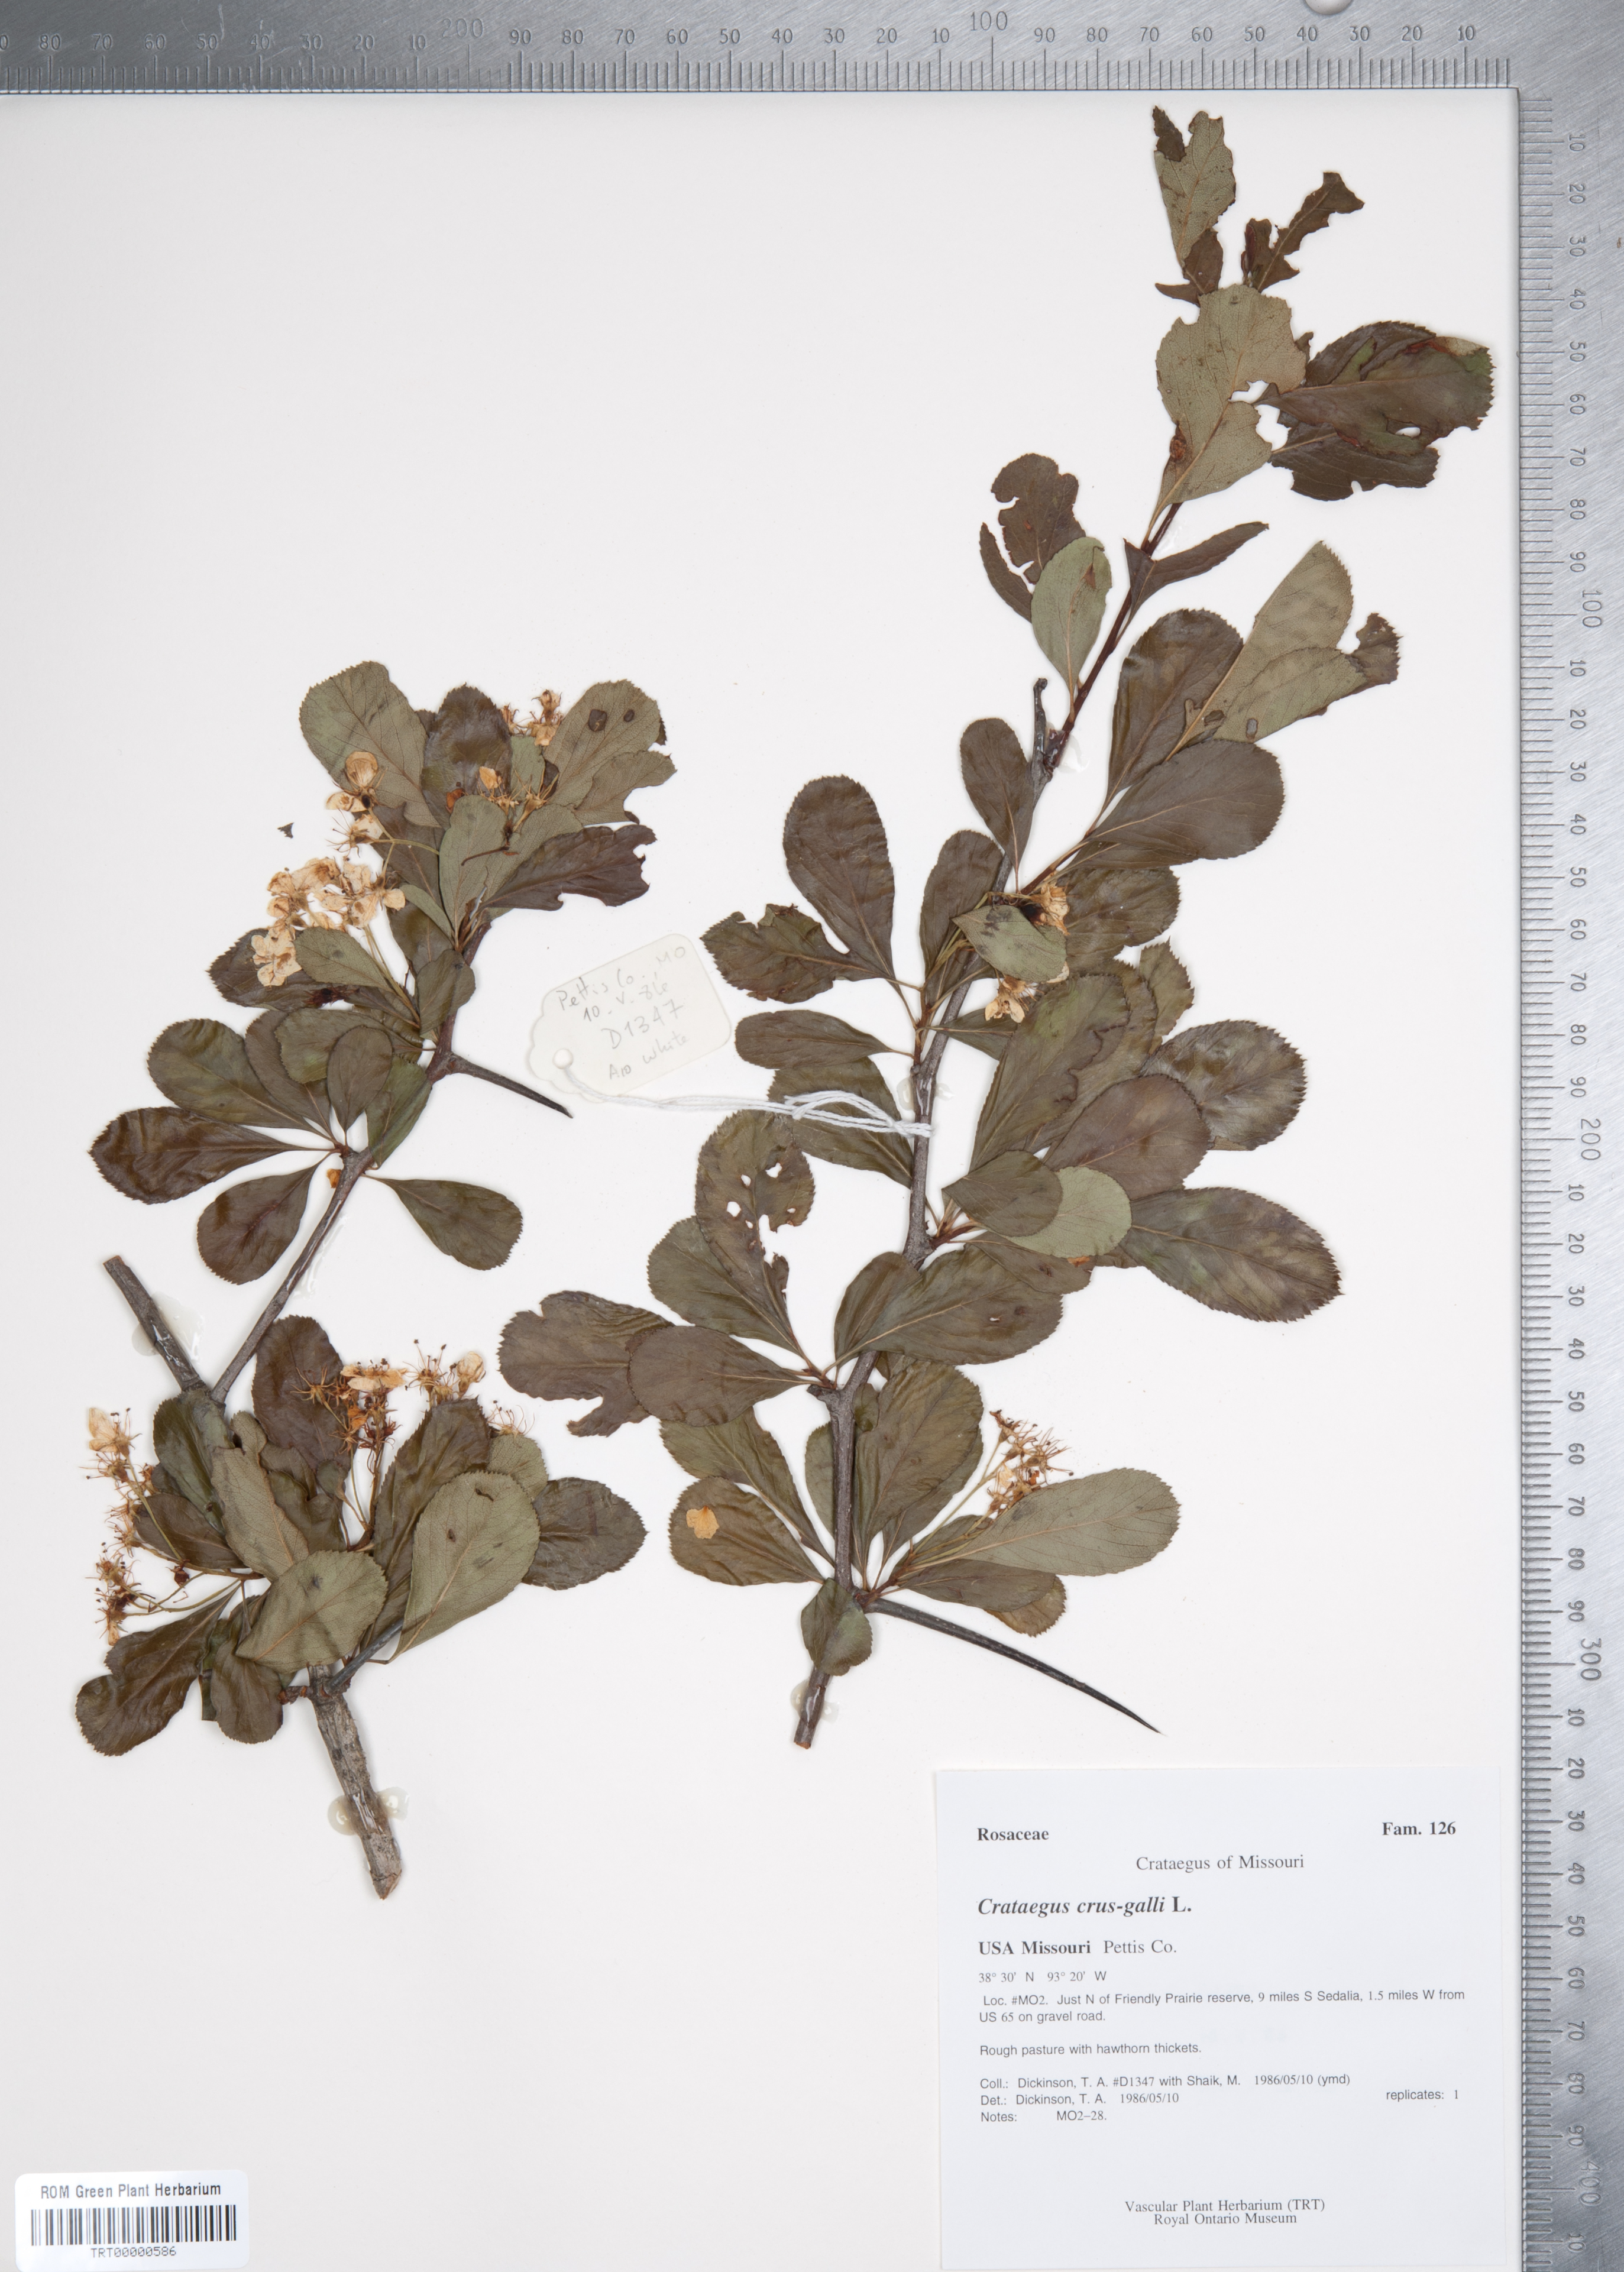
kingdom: Plantae
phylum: Tracheophyta
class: Magnoliopsida
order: Rosales
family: Rosaceae
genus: Crataegus
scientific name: Crataegus crus-galli
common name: Cockspurthorn
